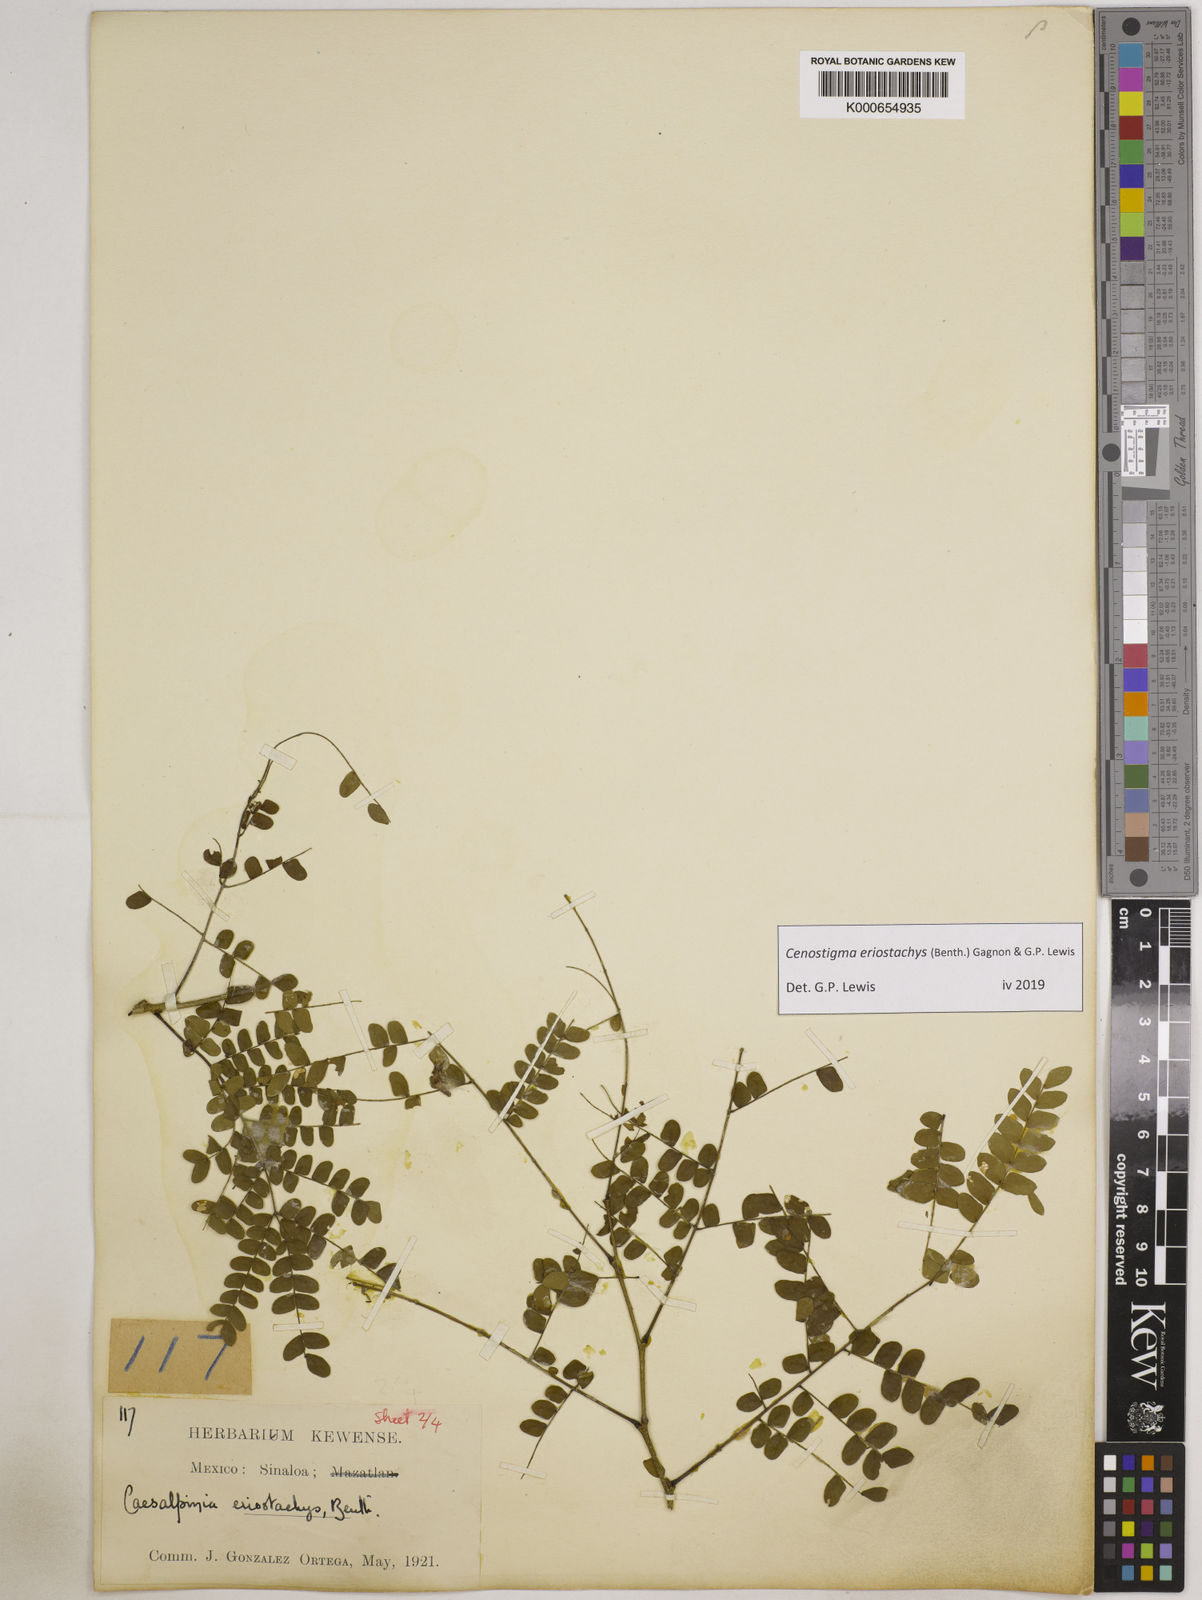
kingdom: Plantae
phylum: Tracheophyta
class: Magnoliopsida
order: Fabales
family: Fabaceae
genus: Cenostigma
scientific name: Cenostigma eriostachys
